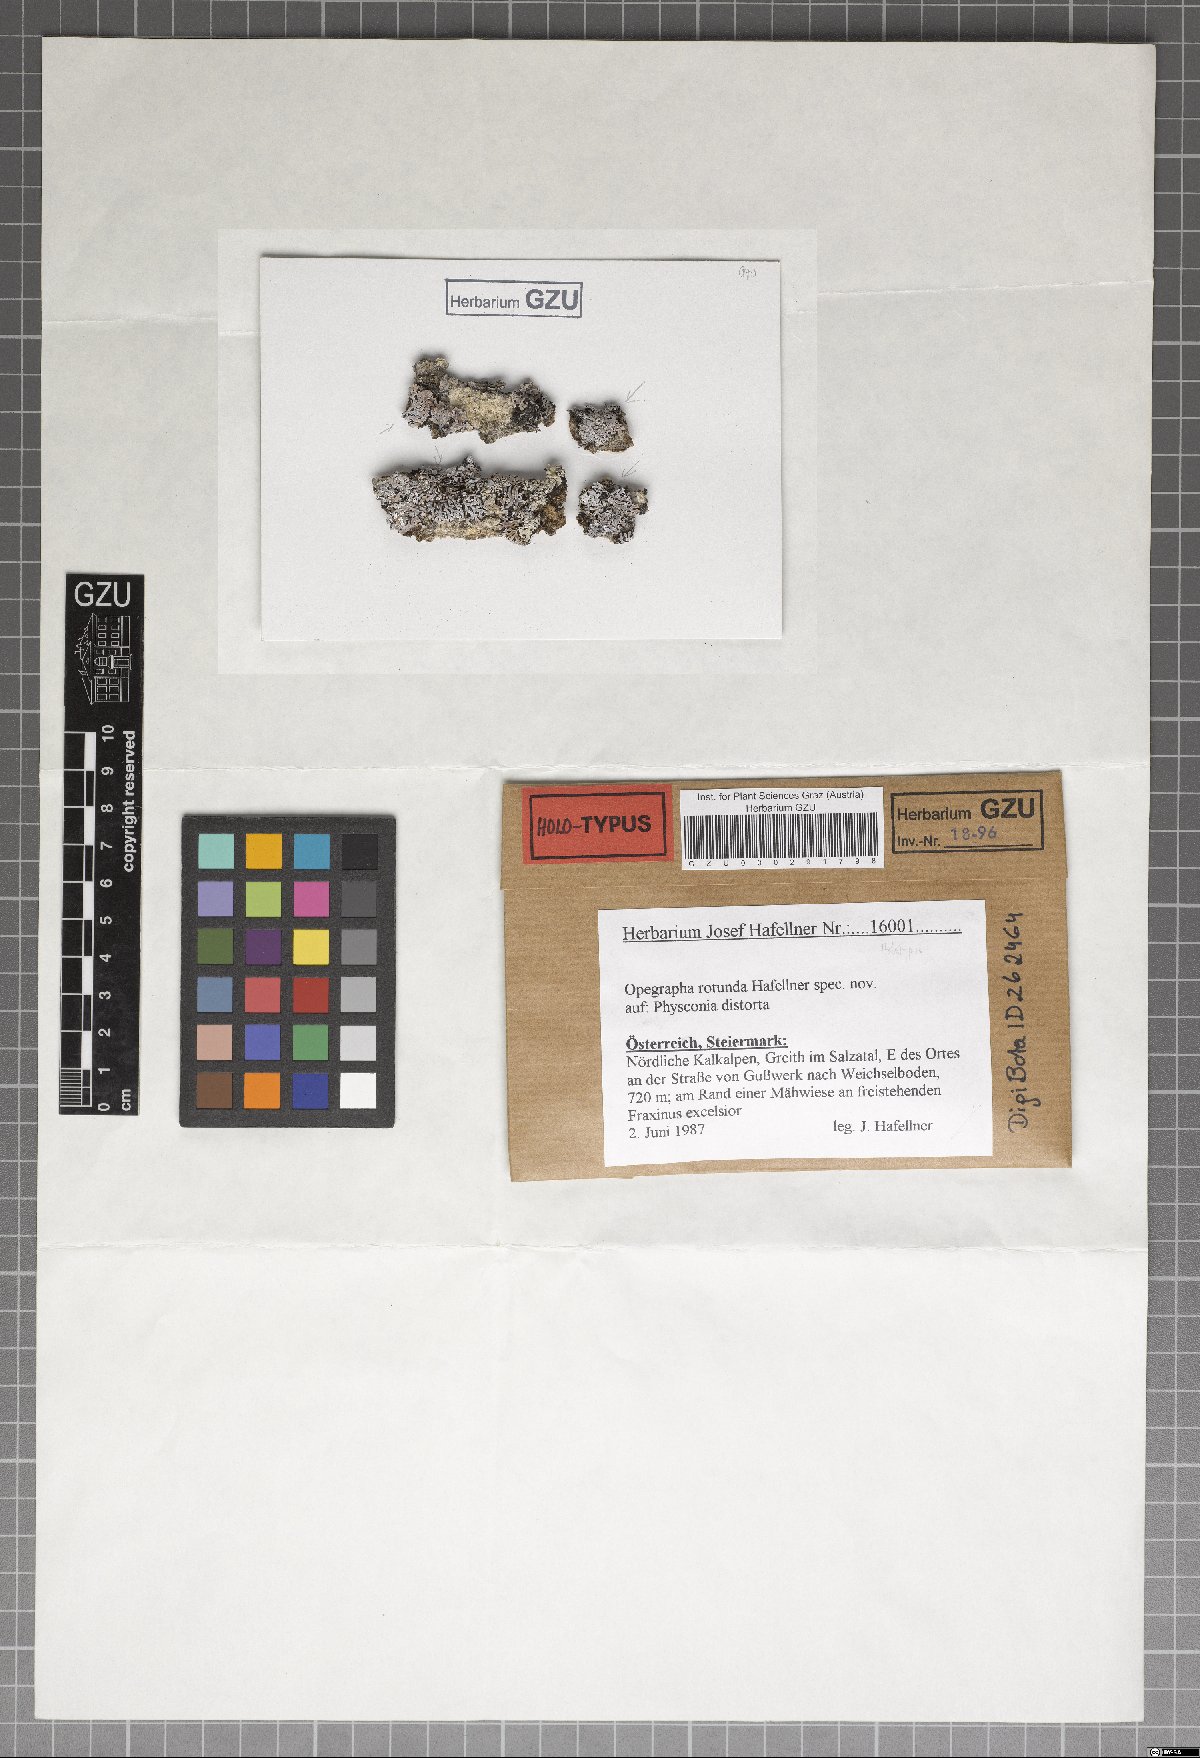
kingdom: Fungi
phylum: Ascomycota
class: Arthoniomycetes
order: Arthoniales
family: Opegraphaceae
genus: Opegrapha
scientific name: Opegrapha rotunda
